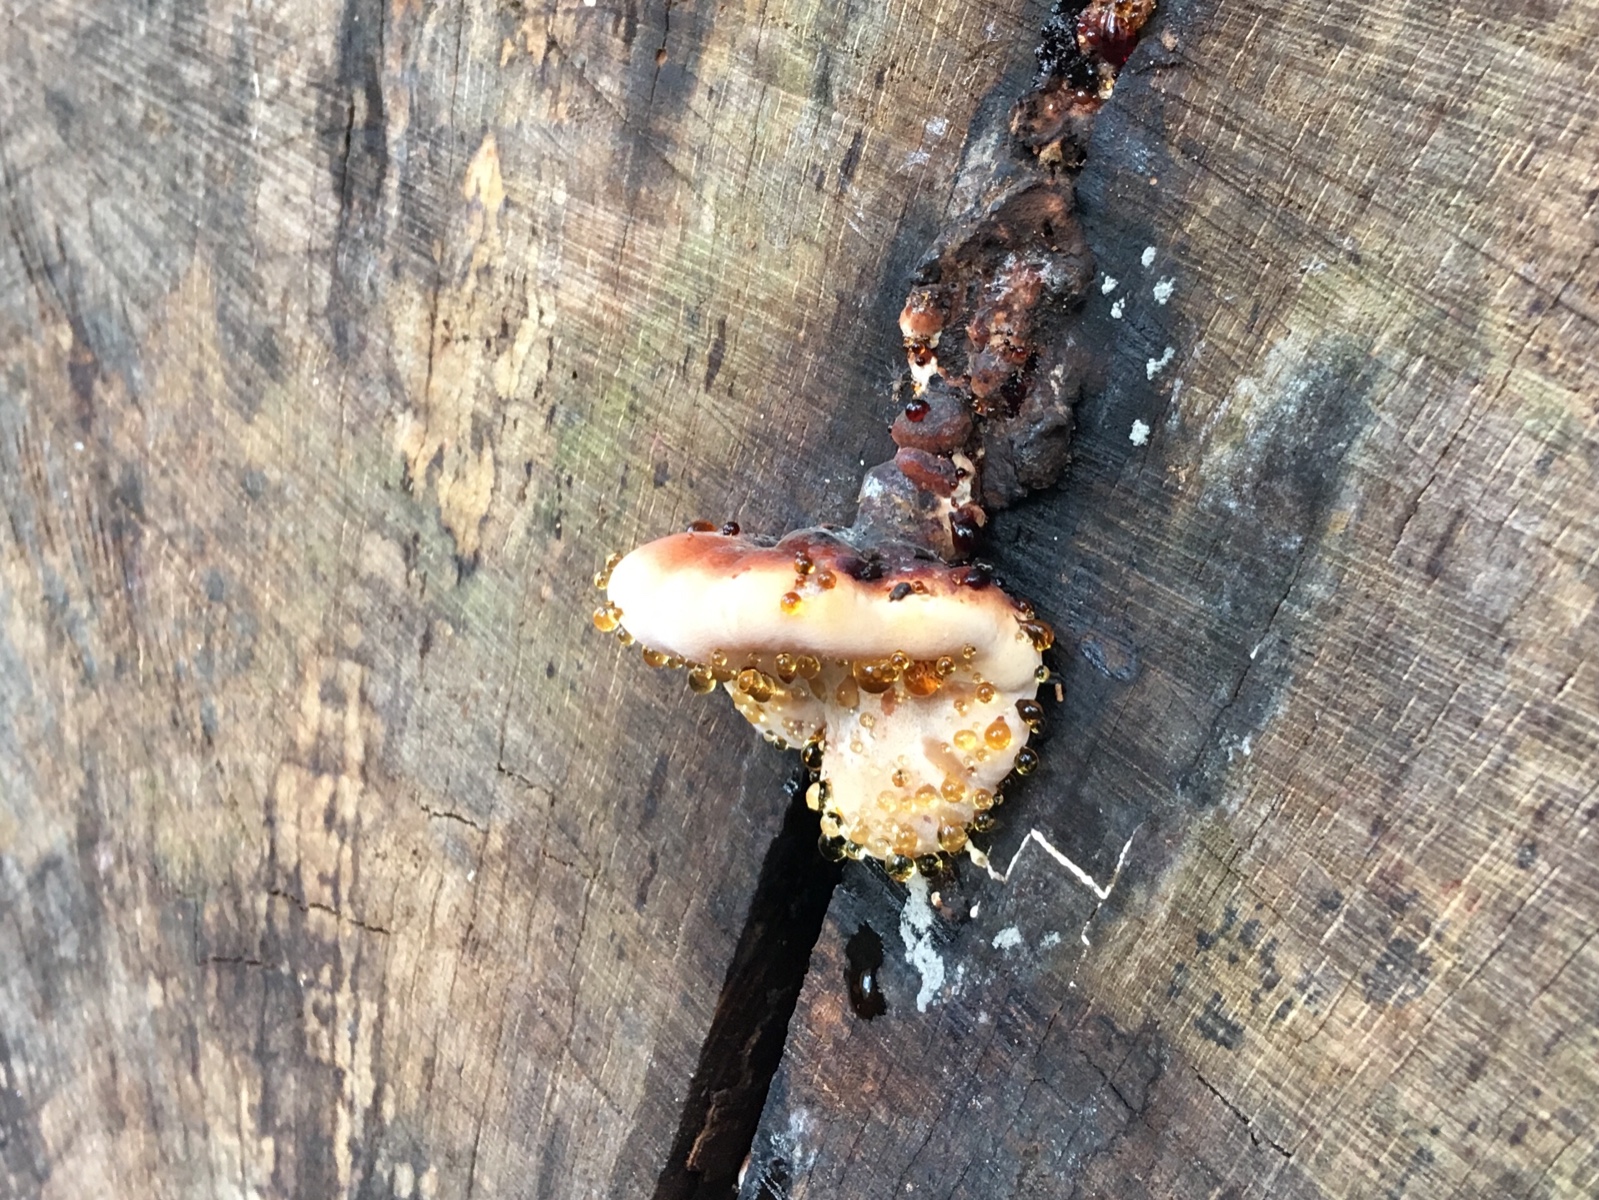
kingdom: Fungi
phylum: Basidiomycota
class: Agaricomycetes
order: Polyporales
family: Ischnodermataceae
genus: Ischnoderma
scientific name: Ischnoderma resinosum
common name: løv-tjæreporesvamp
